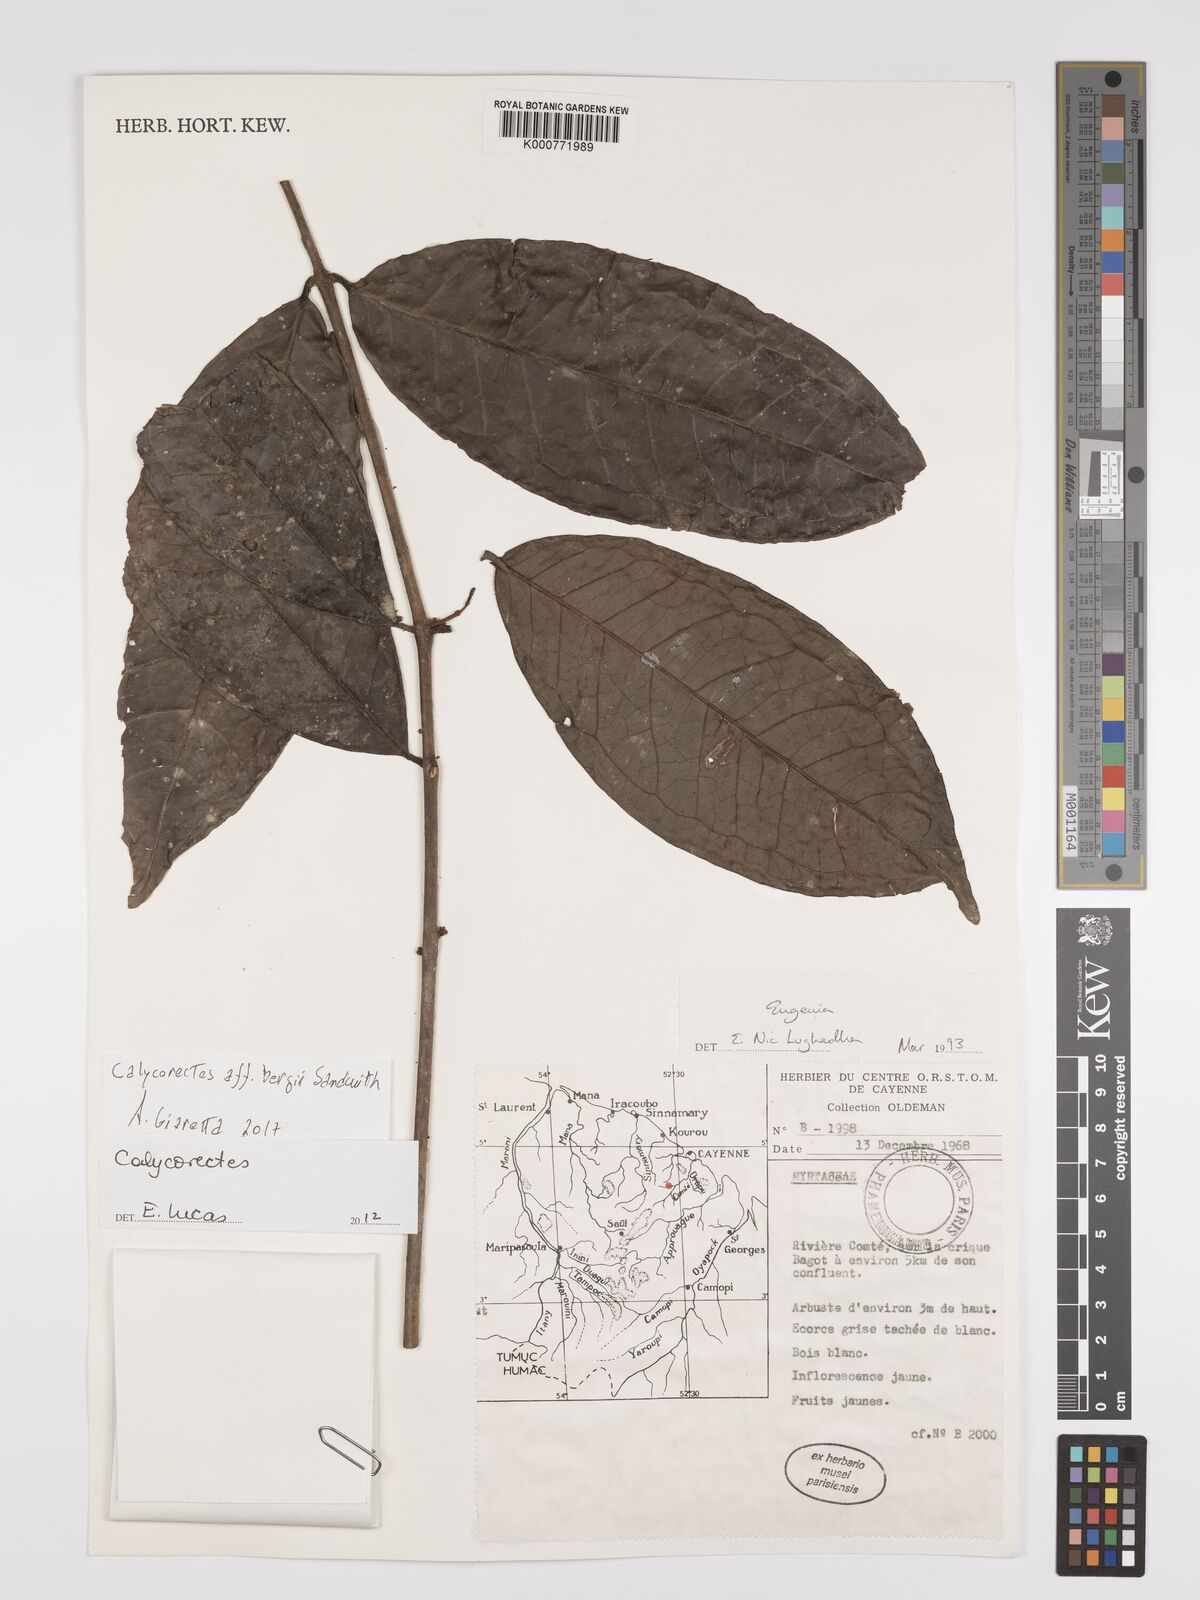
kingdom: Plantae
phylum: Tracheophyta
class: Magnoliopsida
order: Myrtales
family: Myrtaceae
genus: Calycorectes
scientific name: Calycorectes bergii
